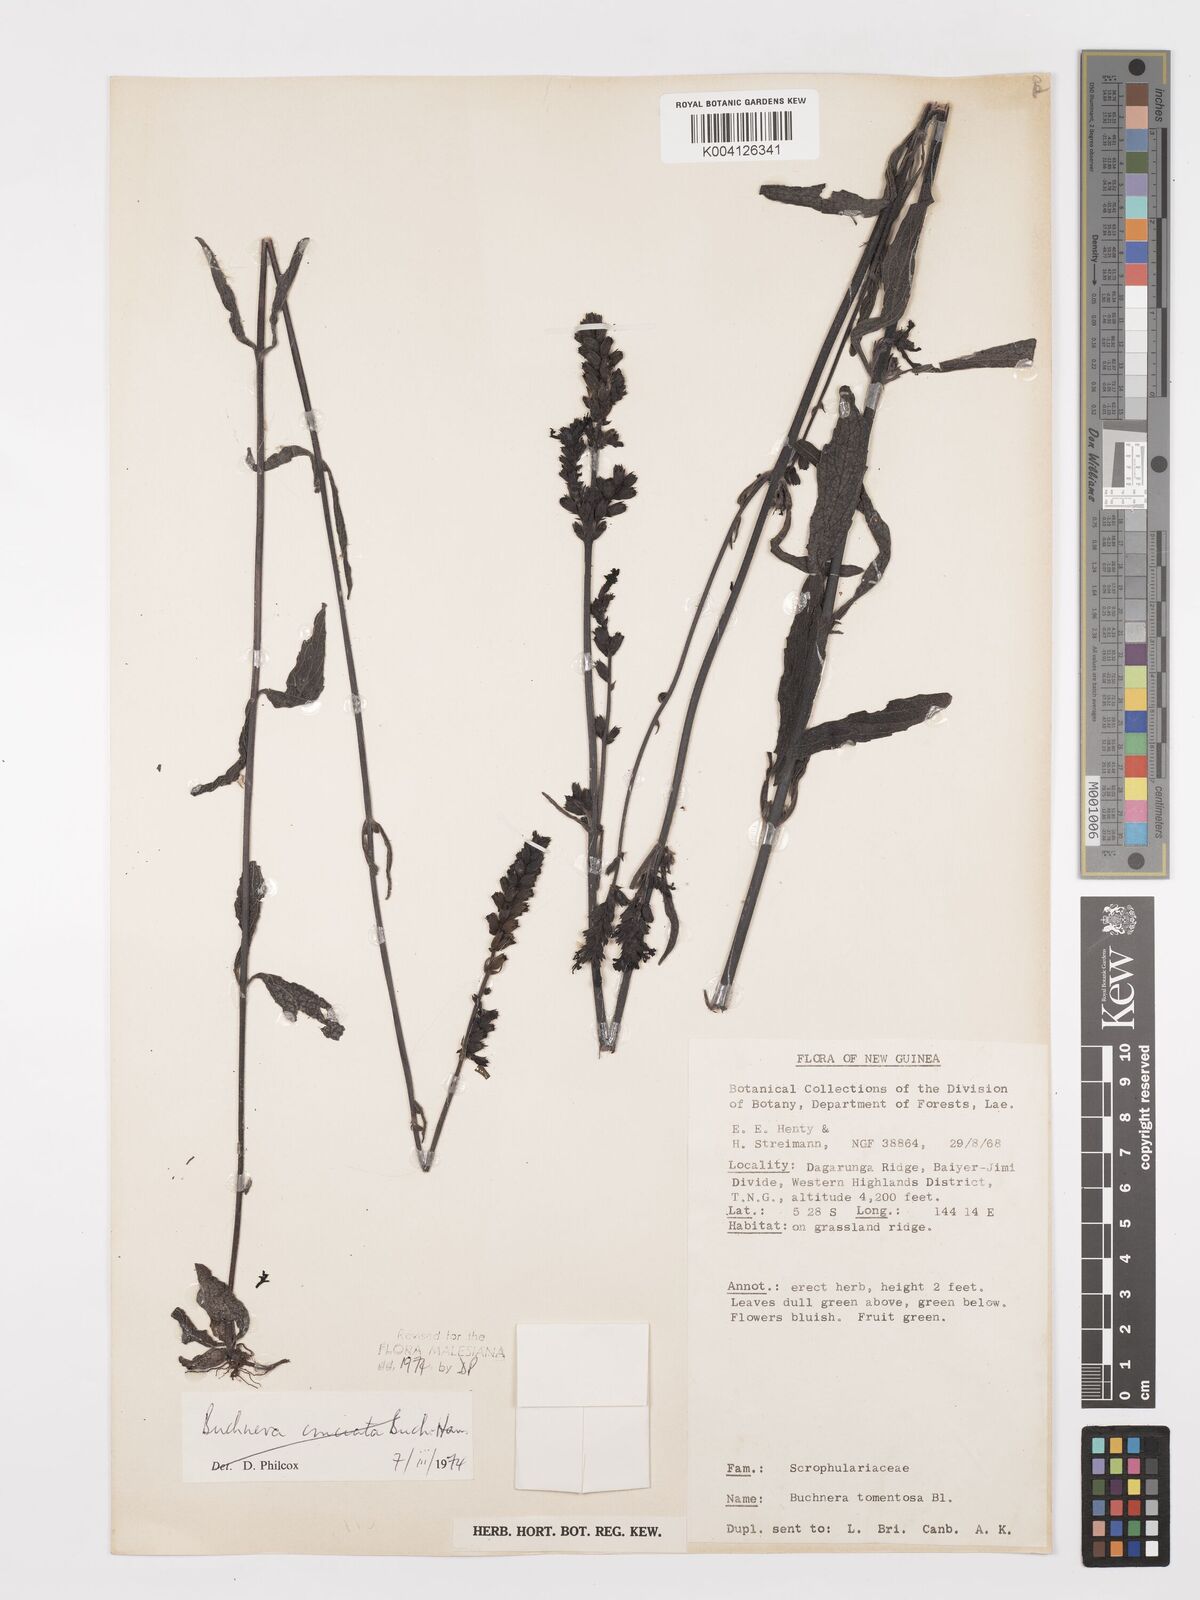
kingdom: Plantae
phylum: Tracheophyta
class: Magnoliopsida
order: Lamiales
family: Orobanchaceae
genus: Buchnera
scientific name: Buchnera tomentosa
